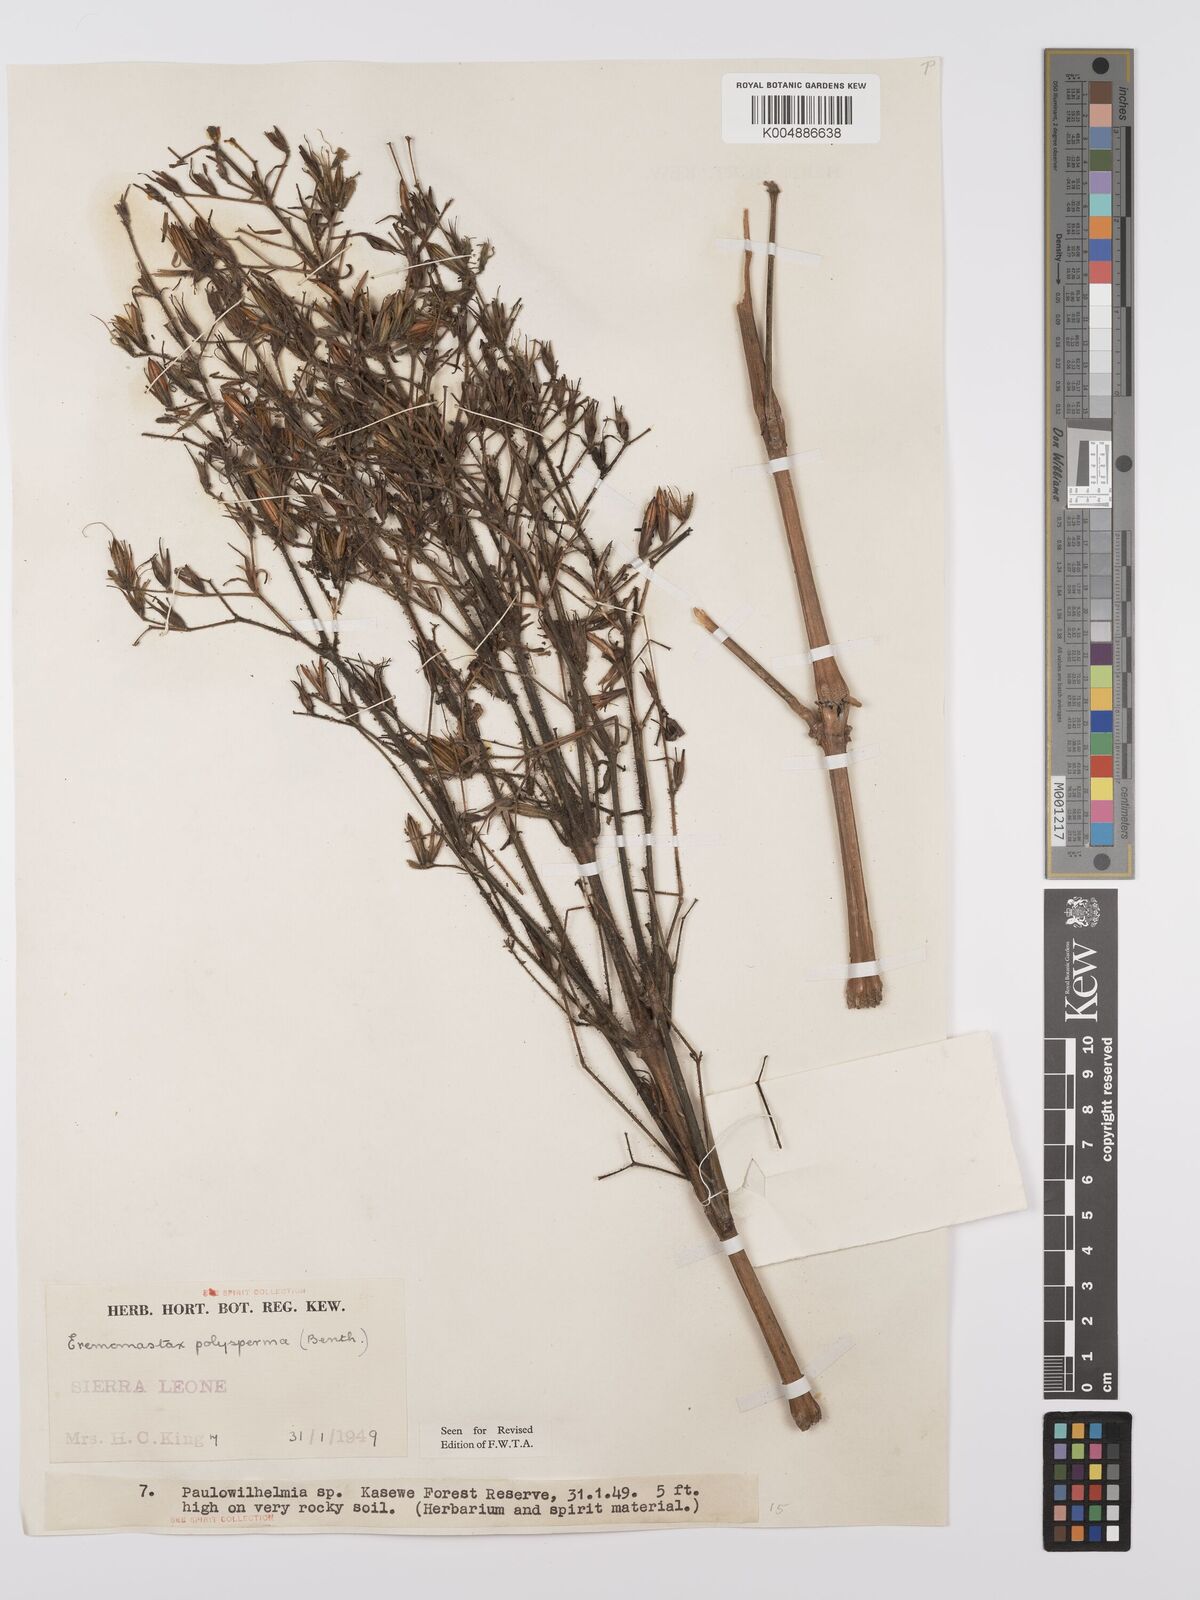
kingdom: Plantae
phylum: Tracheophyta
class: Magnoliopsida
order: Lamiales
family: Acanthaceae
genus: Eremomastax
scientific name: Eremomastax speciosa
